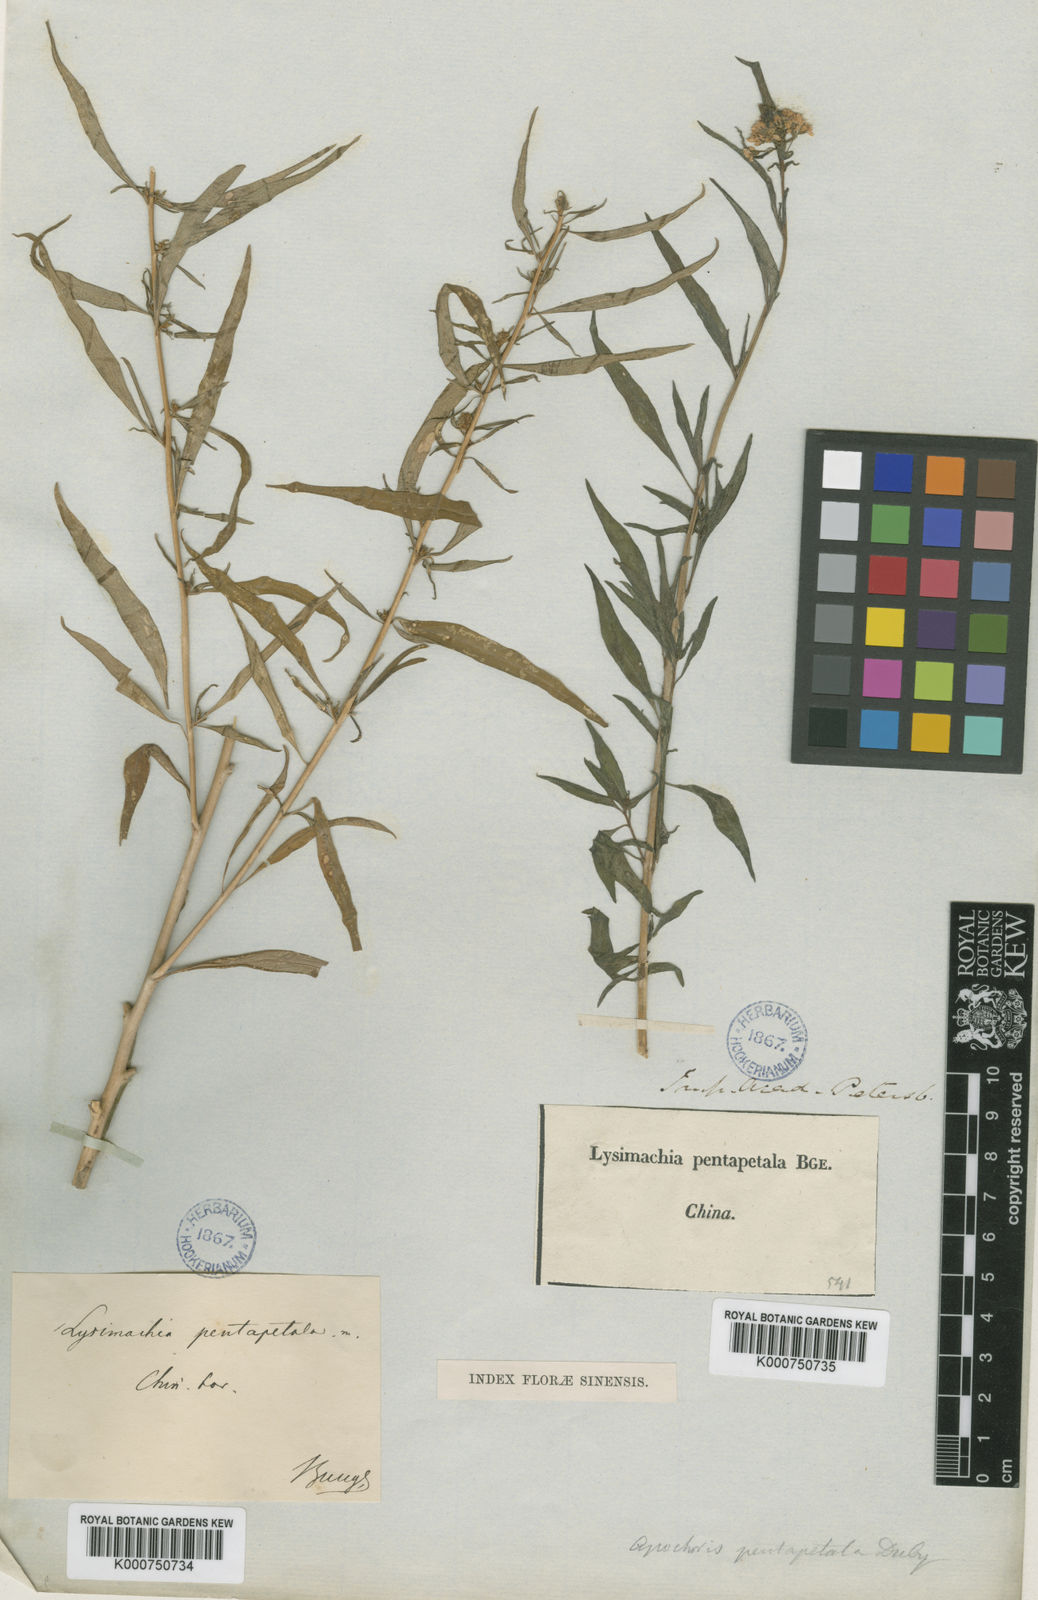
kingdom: Plantae
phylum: Tracheophyta
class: Magnoliopsida
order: Ericales
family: Primulaceae
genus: Lysimachia
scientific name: Lysimachia pentapetala
